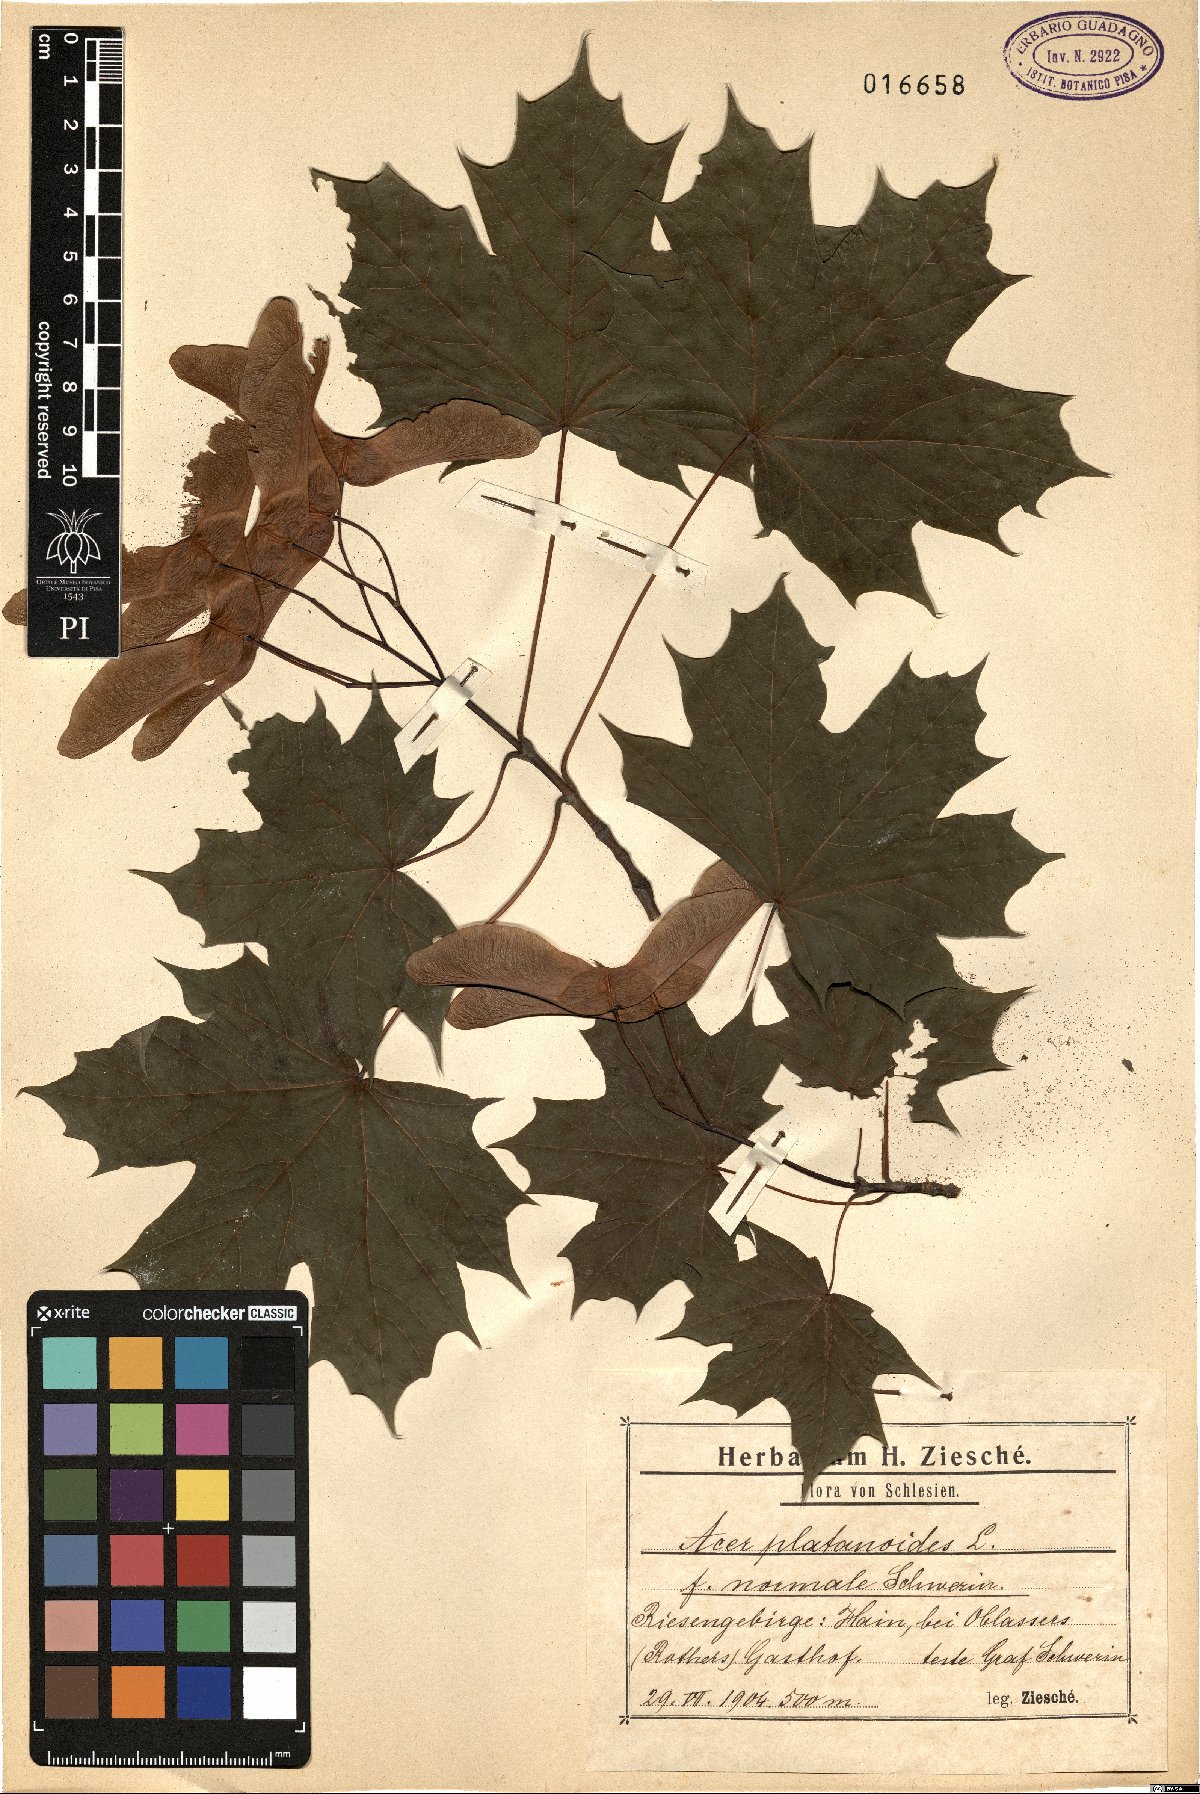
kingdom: Plantae
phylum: Tracheophyta
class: Magnoliopsida
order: Sapindales
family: Sapindaceae
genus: Acer
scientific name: Acer platanoides
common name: Norway maple
